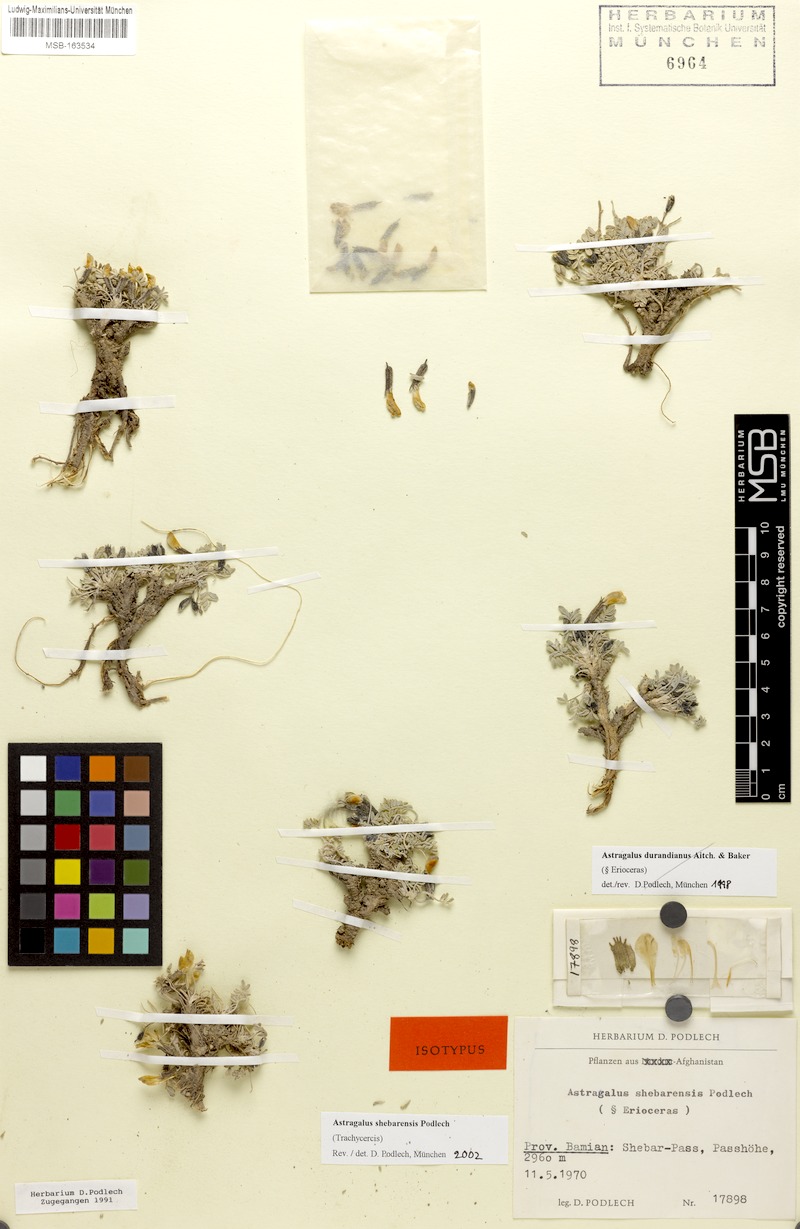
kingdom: Plantae
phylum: Tracheophyta
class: Magnoliopsida
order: Fabales
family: Fabaceae
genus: Astragalus
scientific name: Astragalus shebarensis
